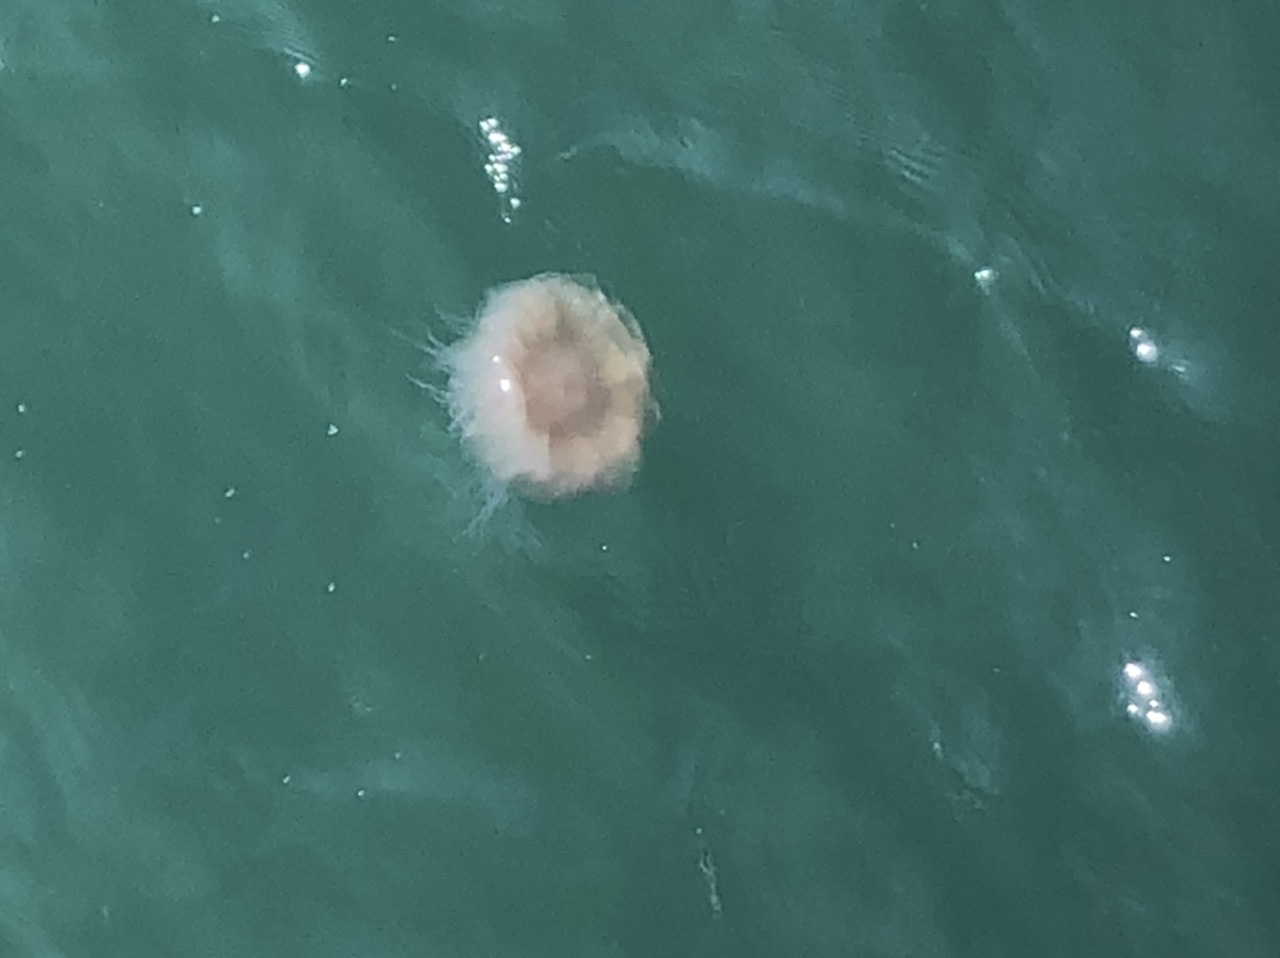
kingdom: Animalia
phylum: Cnidaria
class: Scyphozoa
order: Semaeostomeae
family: Cyaneidae
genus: Cyanea
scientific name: Cyanea nozakii
